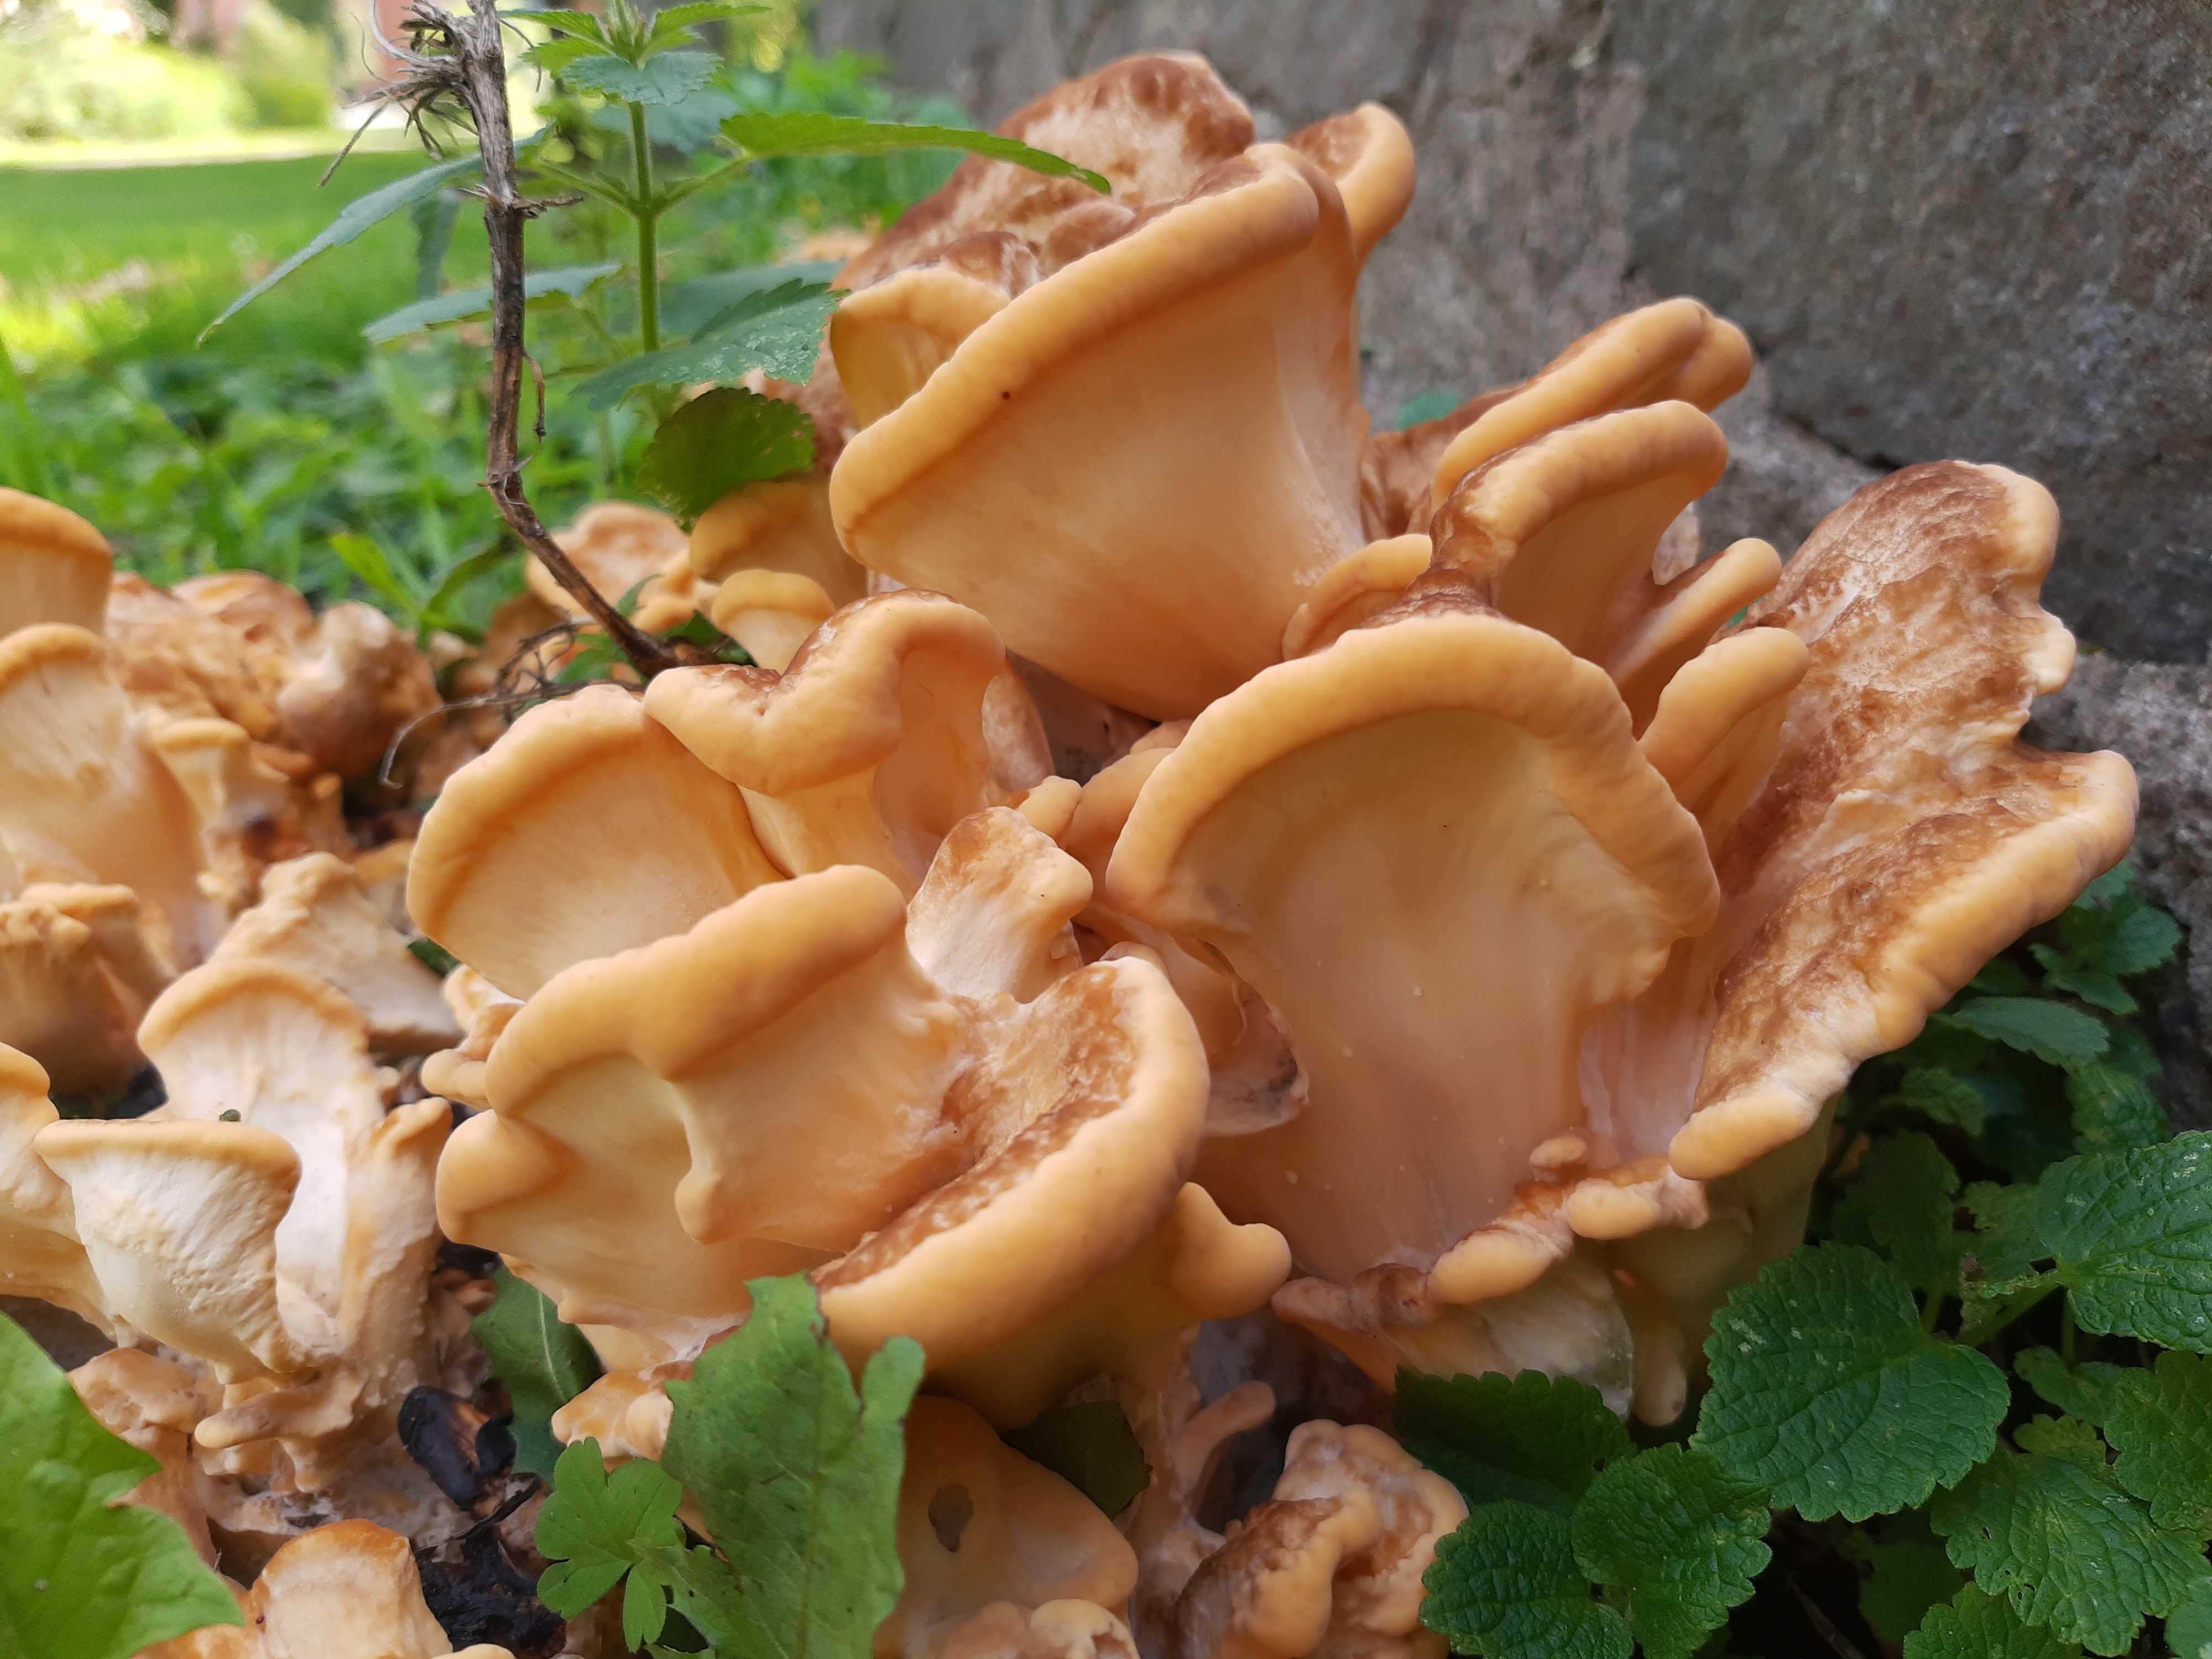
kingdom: Fungi
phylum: Basidiomycota
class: Agaricomycetes
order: Polyporales
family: Meripilaceae
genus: Meripilus
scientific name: Meripilus giganteus
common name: kæmpeporesvamp
